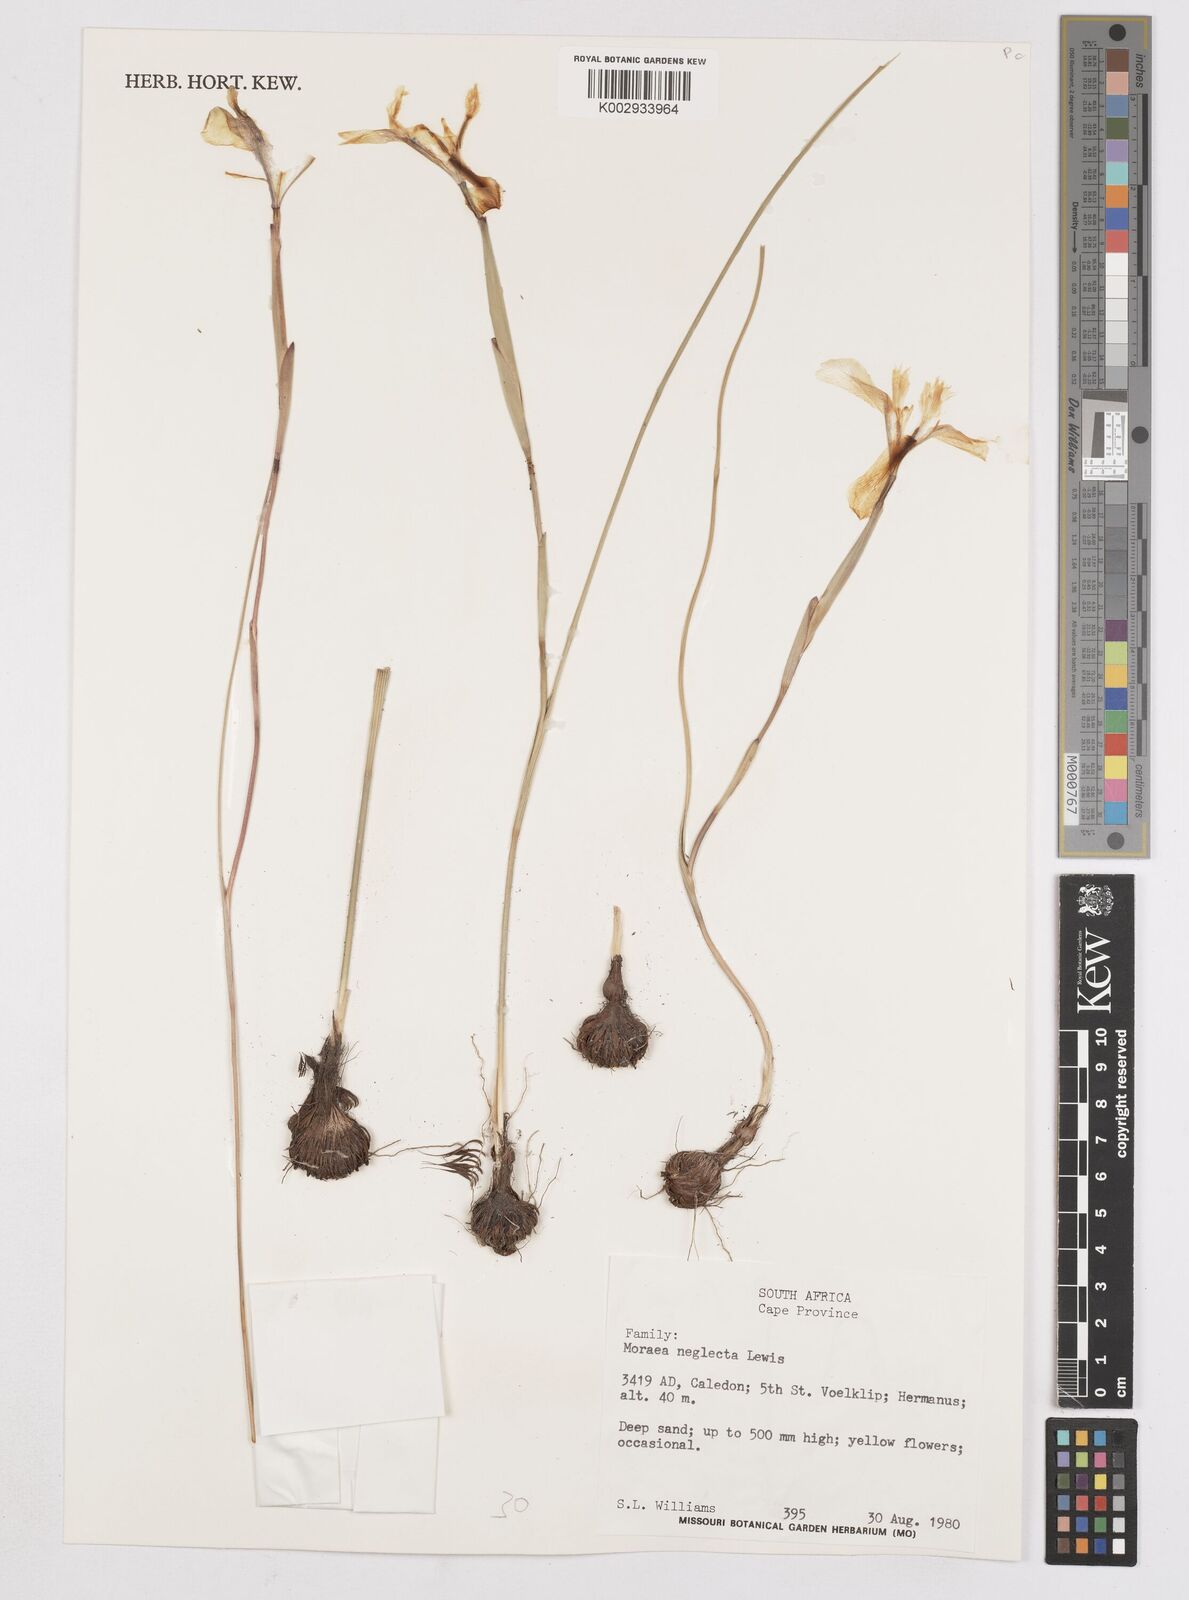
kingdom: Plantae
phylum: Tracheophyta
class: Liliopsida
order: Asparagales
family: Iridaceae
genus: Moraea
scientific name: Moraea neglecta
